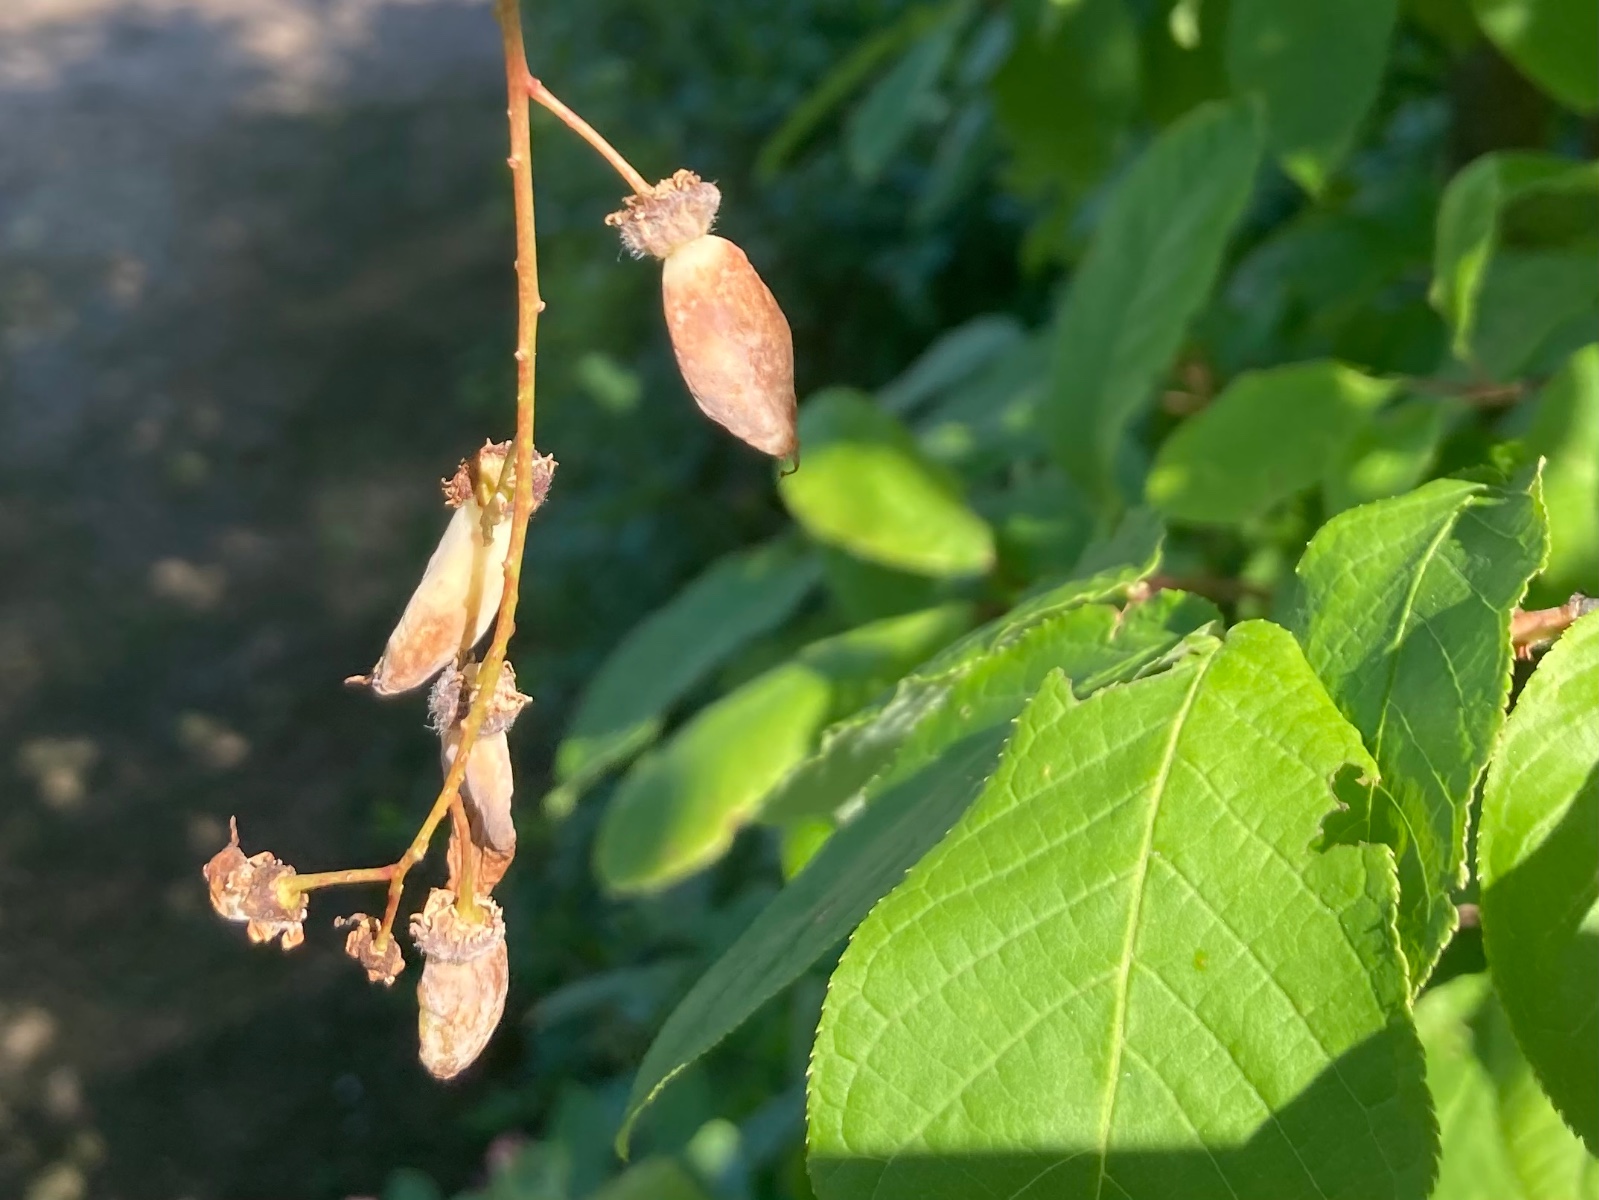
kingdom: Fungi
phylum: Ascomycota
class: Taphrinomycetes
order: Taphrinales
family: Taphrinaceae
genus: Taphrina
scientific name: Taphrina padi
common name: Bird cherry pocket
